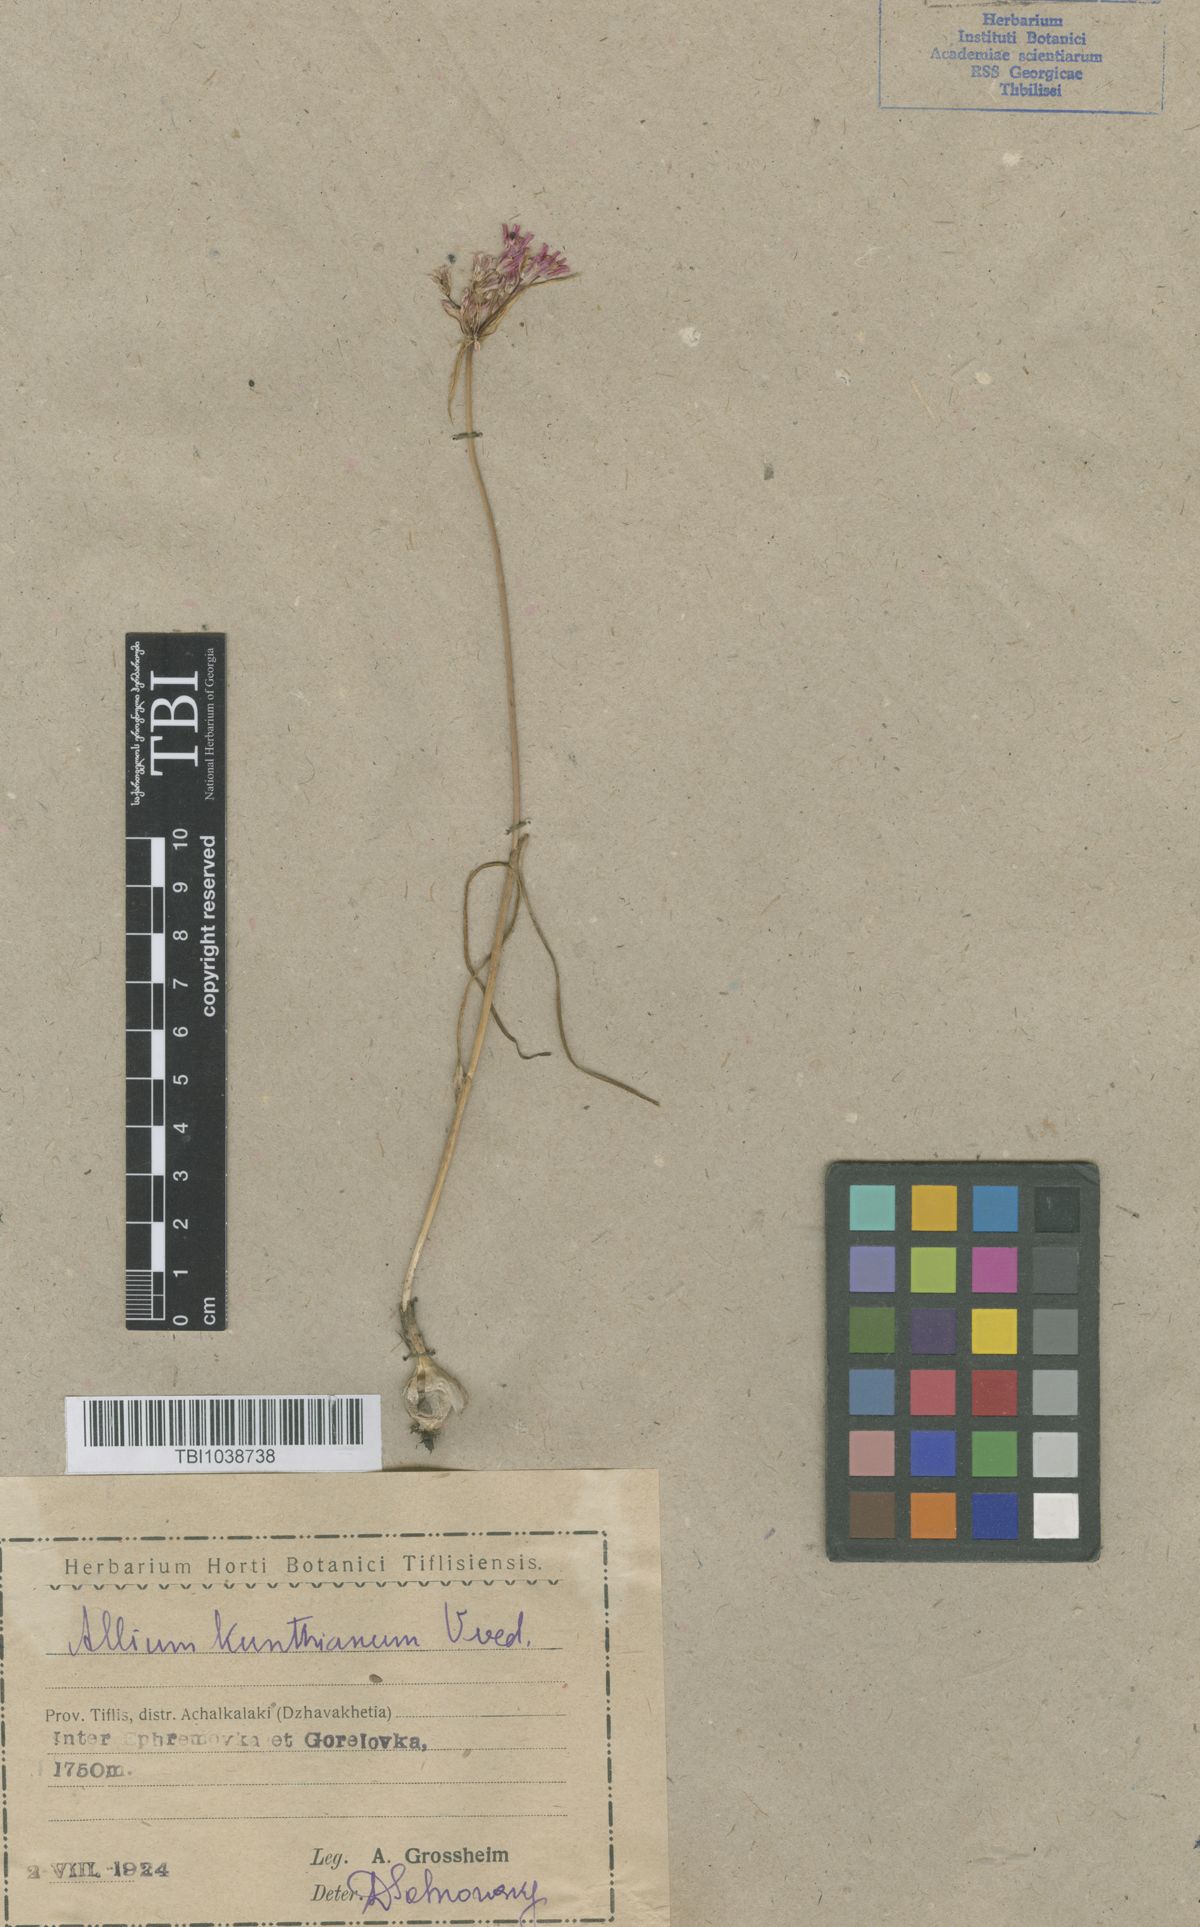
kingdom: Plantae
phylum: Tracheophyta
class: Liliopsida
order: Asparagales
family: Amaryllidaceae
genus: Allium
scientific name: Allium kunthianum
